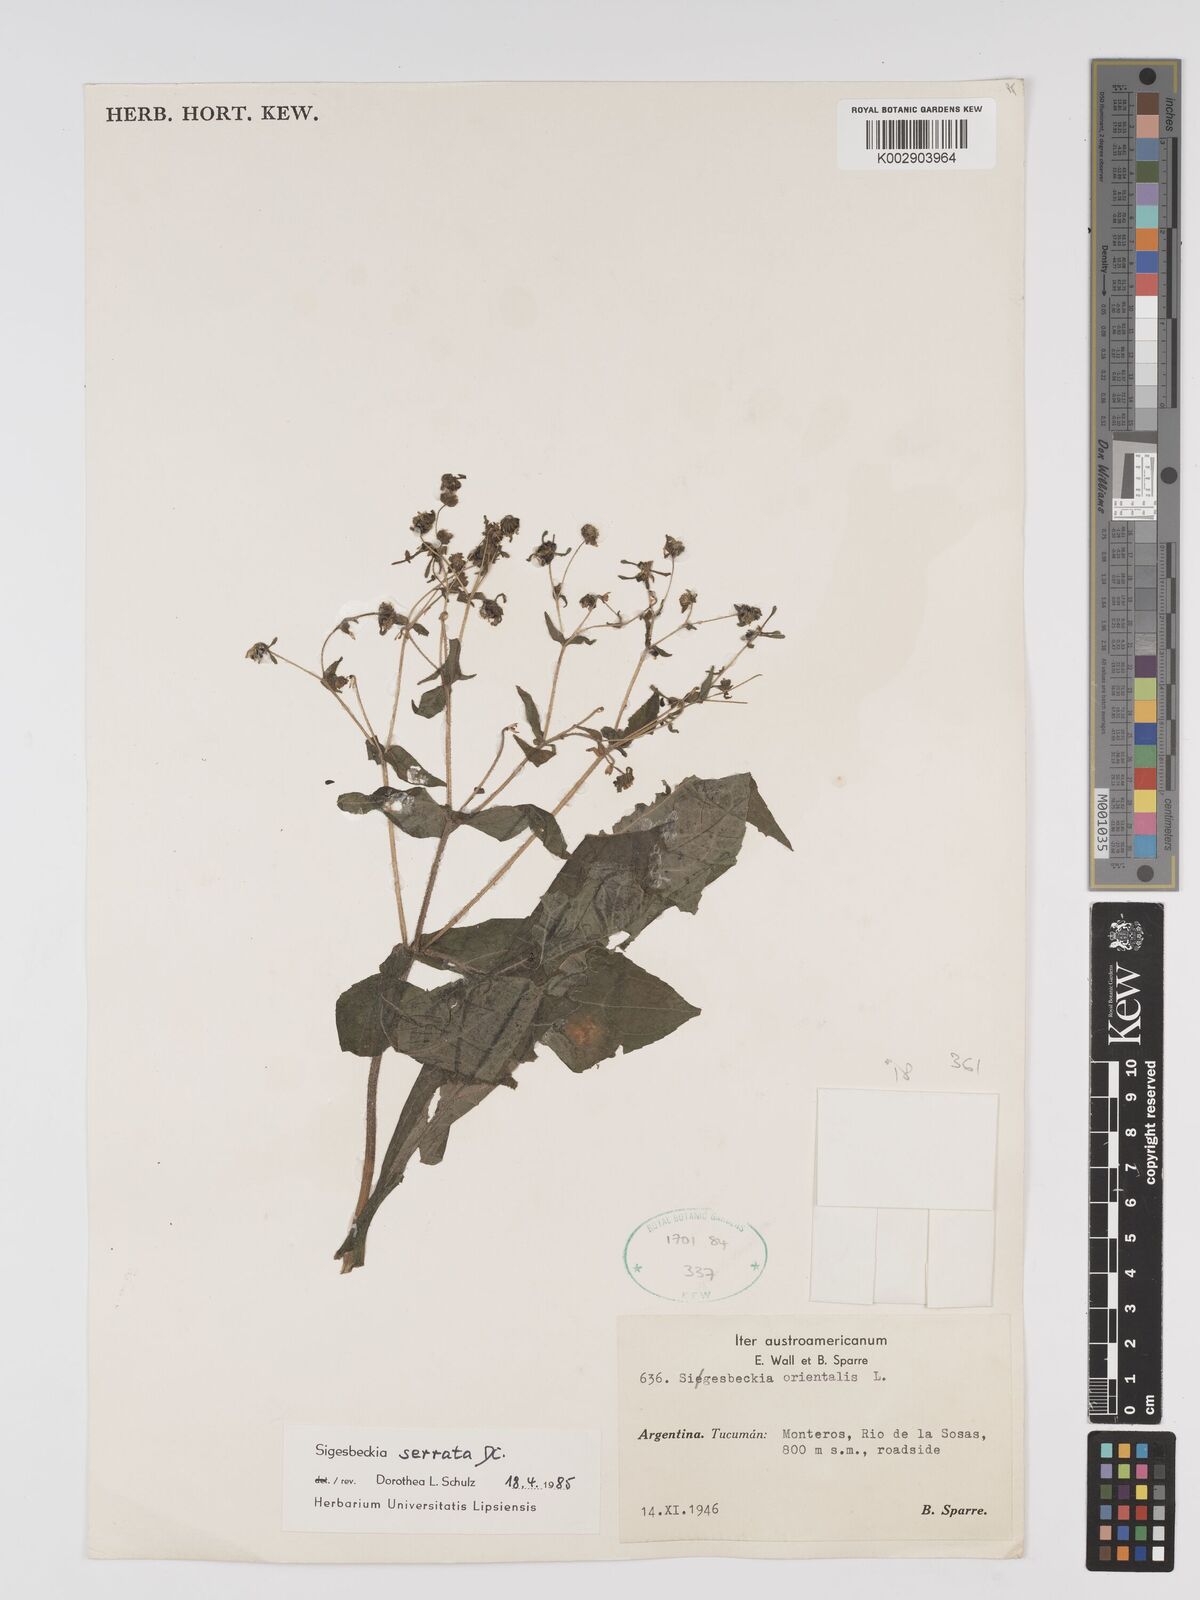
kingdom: Plantae
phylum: Tracheophyta
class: Magnoliopsida
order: Asterales
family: Asteraceae
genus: Sigesbeckia
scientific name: Sigesbeckia jorullensis
